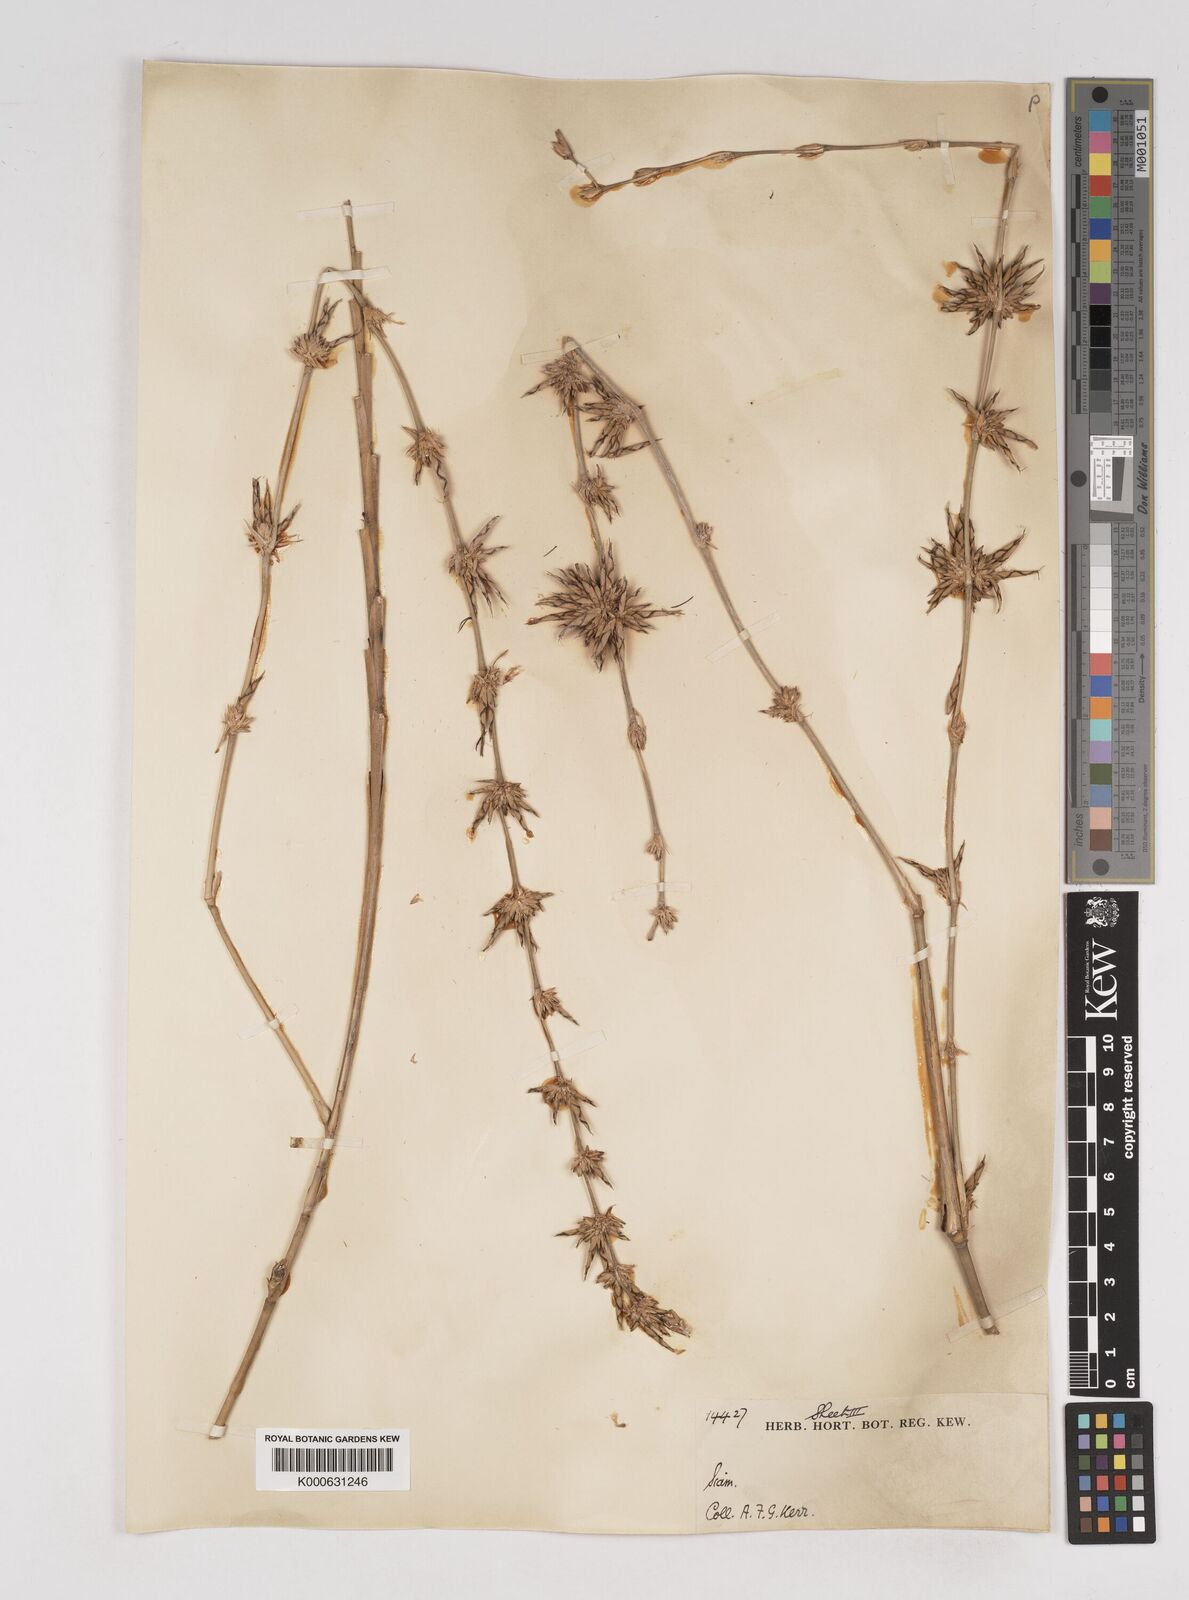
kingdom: Plantae
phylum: Tracheophyta
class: Liliopsida
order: Poales
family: Poaceae
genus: Gigantochloa
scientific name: Gigantochloa
